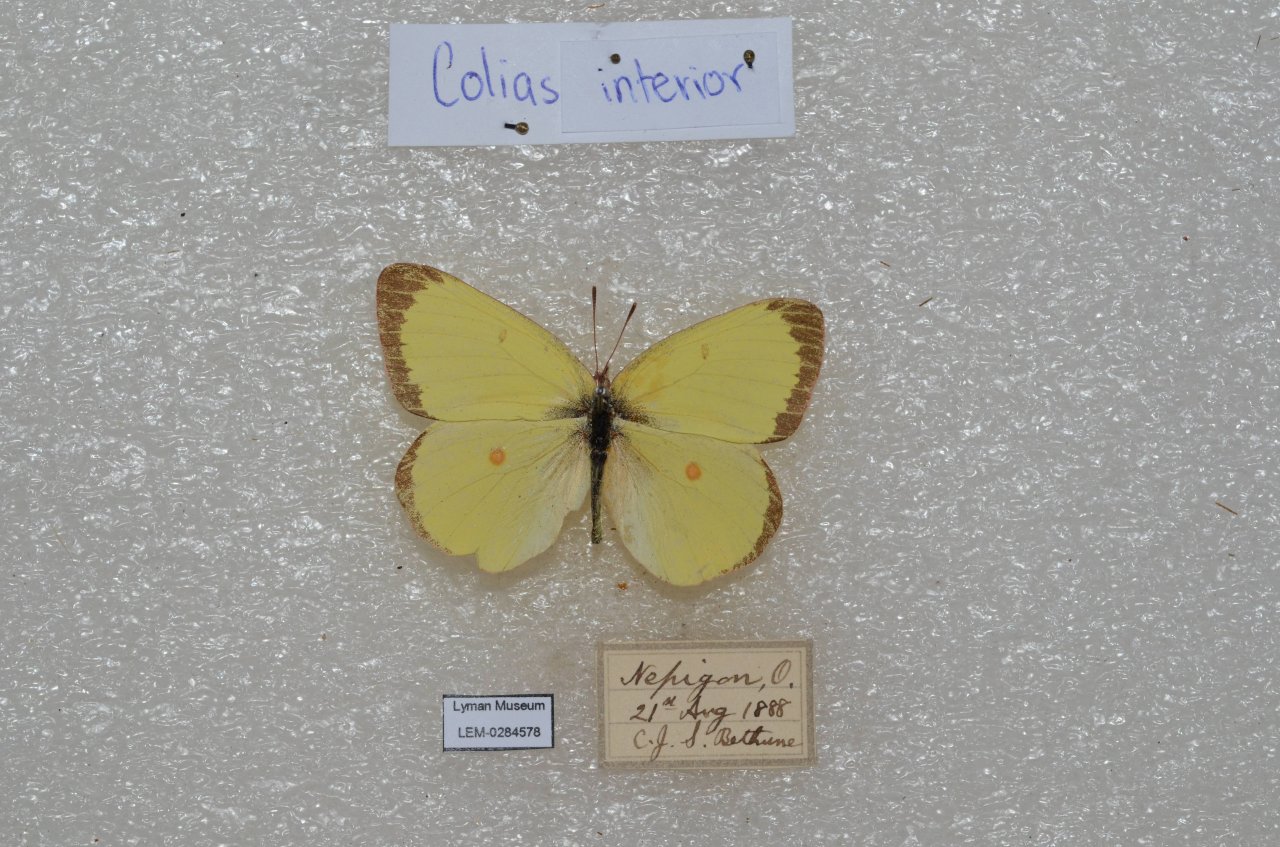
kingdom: Animalia
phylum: Arthropoda
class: Insecta
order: Lepidoptera
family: Pieridae
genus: Colias
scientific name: Colias interior
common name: Pink-edged Sulphur
